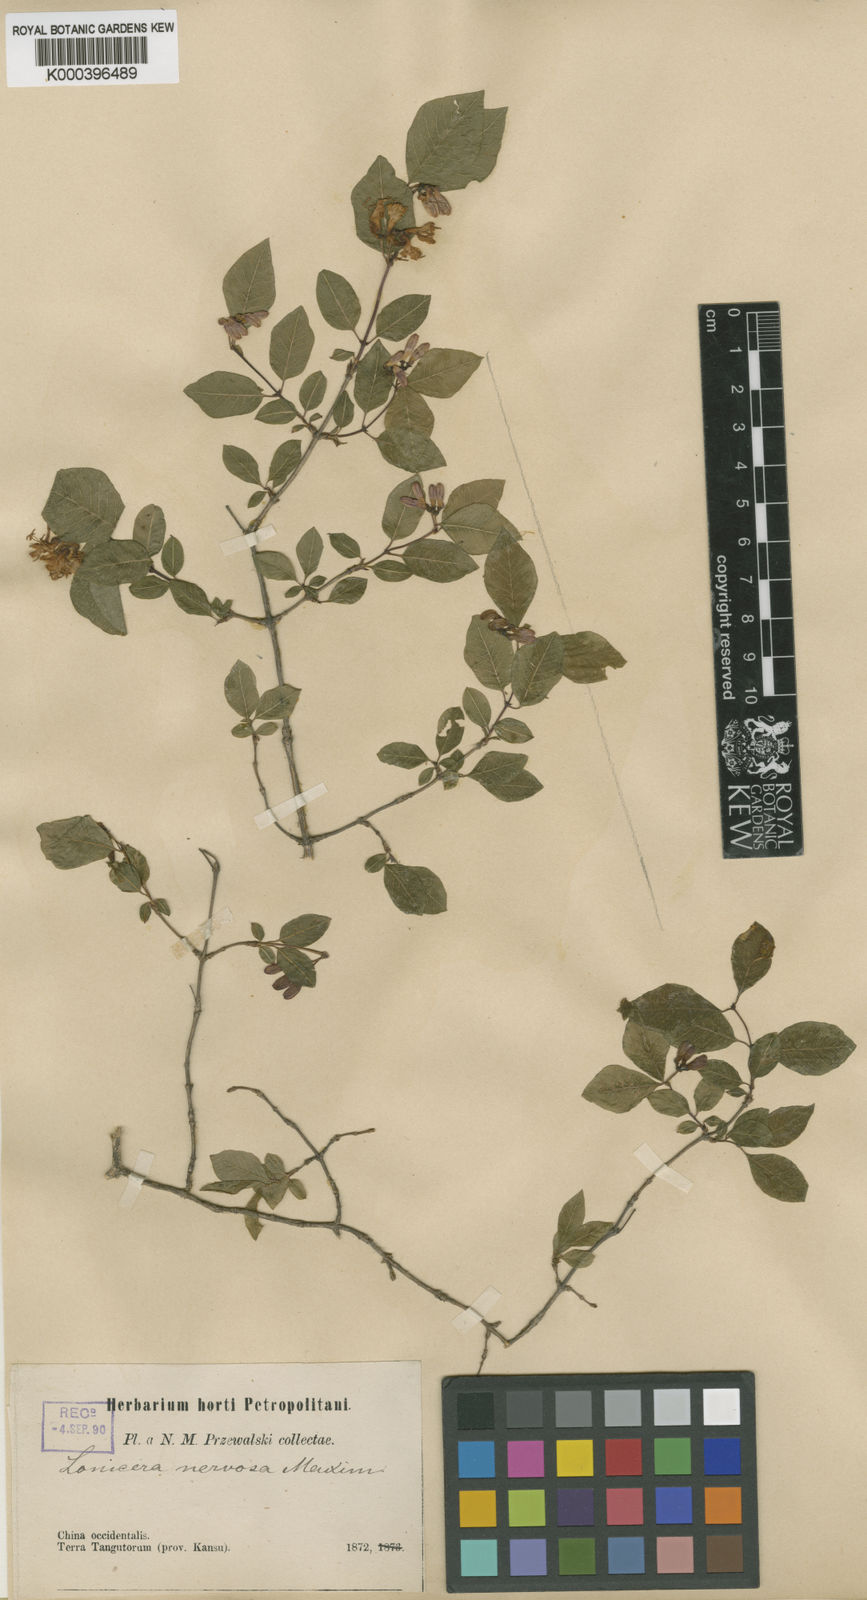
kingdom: Plantae
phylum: Tracheophyta
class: Magnoliopsida
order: Dipsacales
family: Caprifoliaceae
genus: Lonicera
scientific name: Lonicera nervosa
